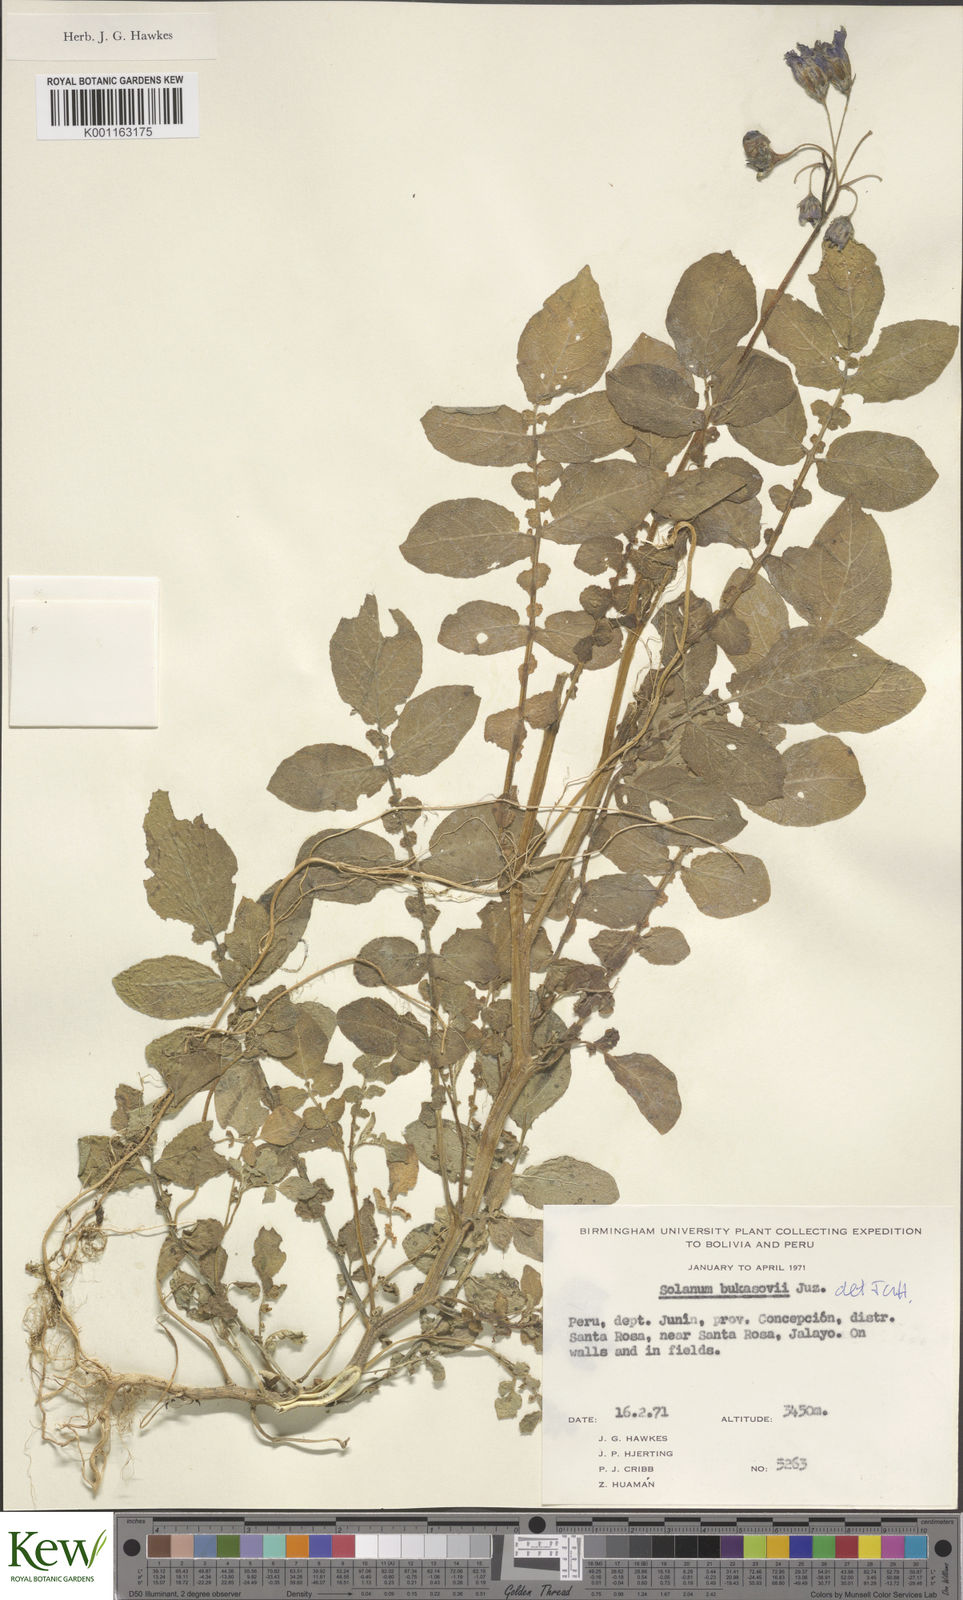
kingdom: Plantae
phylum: Tracheophyta
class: Magnoliopsida
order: Solanales
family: Solanaceae
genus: Solanum
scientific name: Solanum candolleanum
